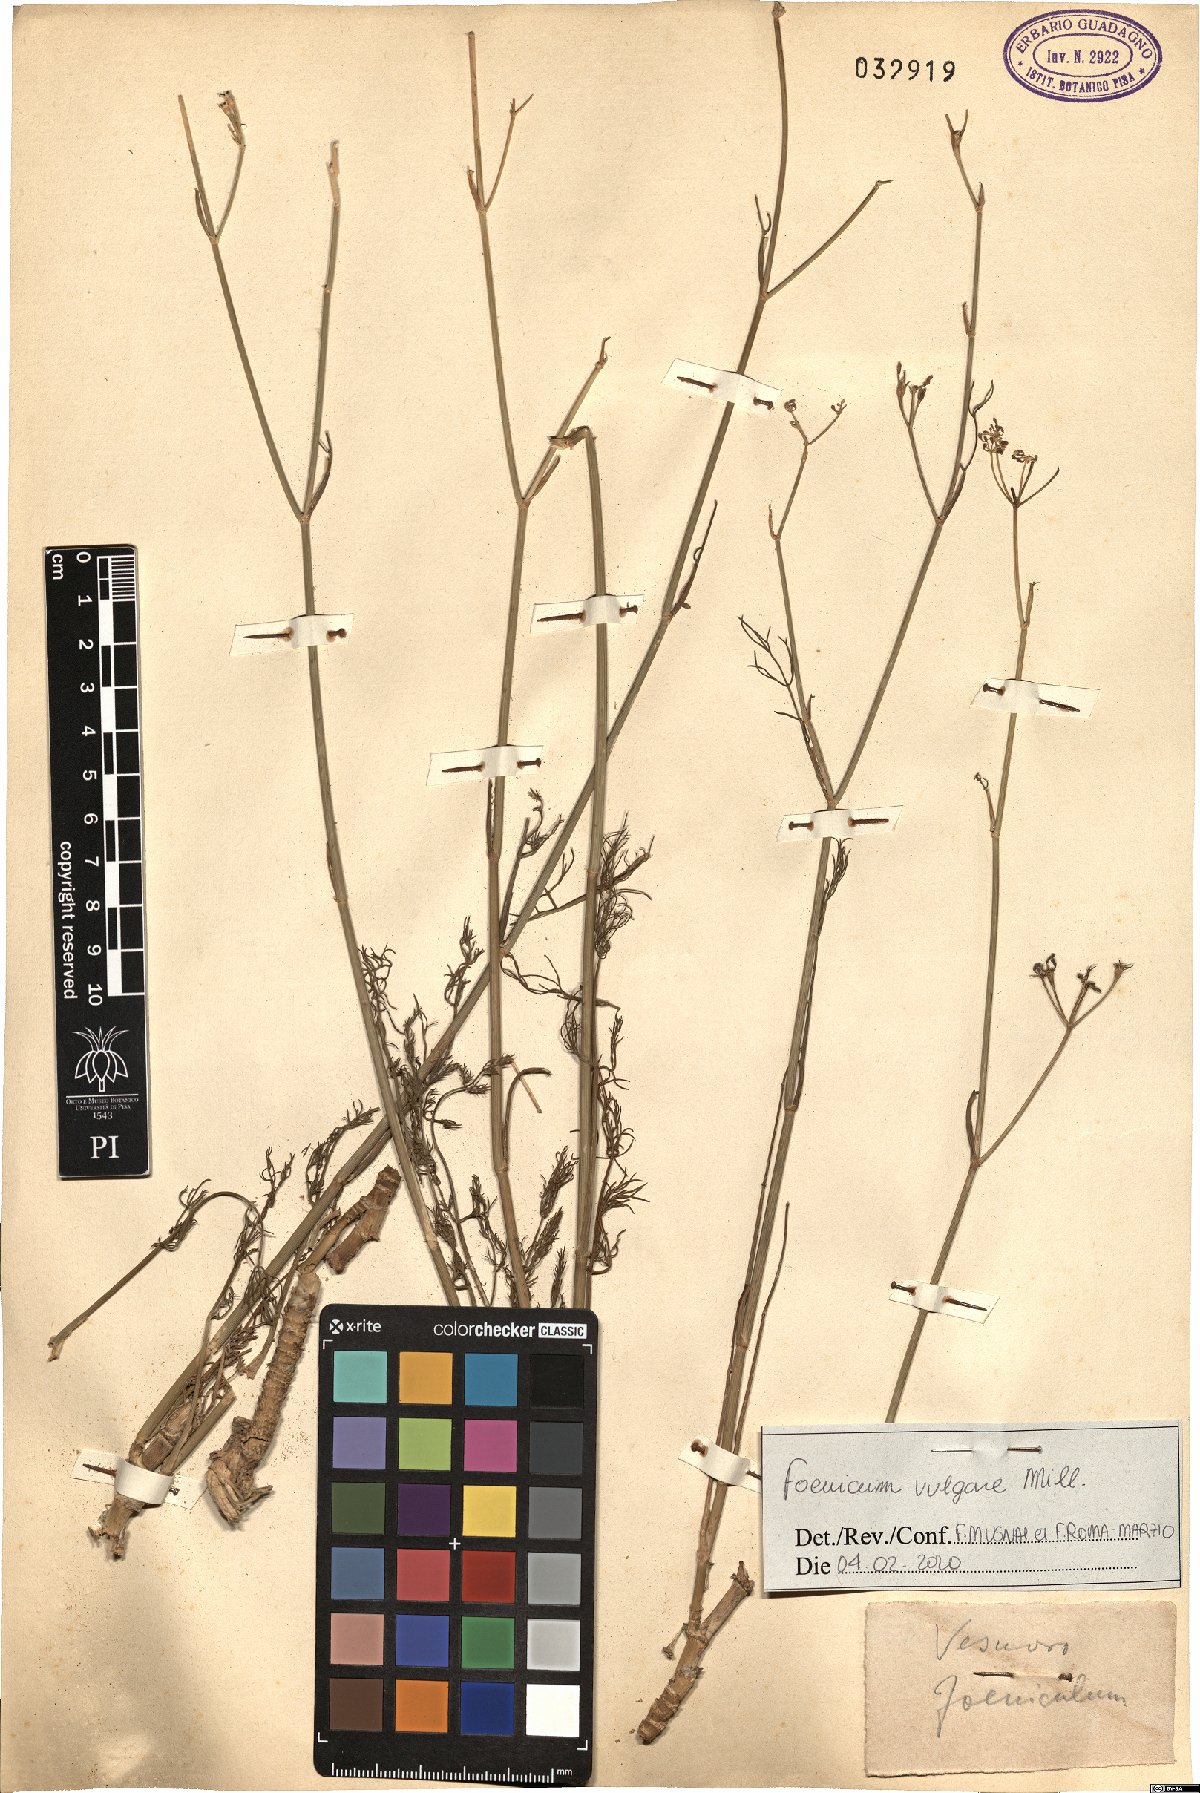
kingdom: Plantae
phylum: Tracheophyta
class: Magnoliopsida
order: Apiales
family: Apiaceae
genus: Foeniculum
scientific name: Foeniculum vulgare
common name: Fennel
